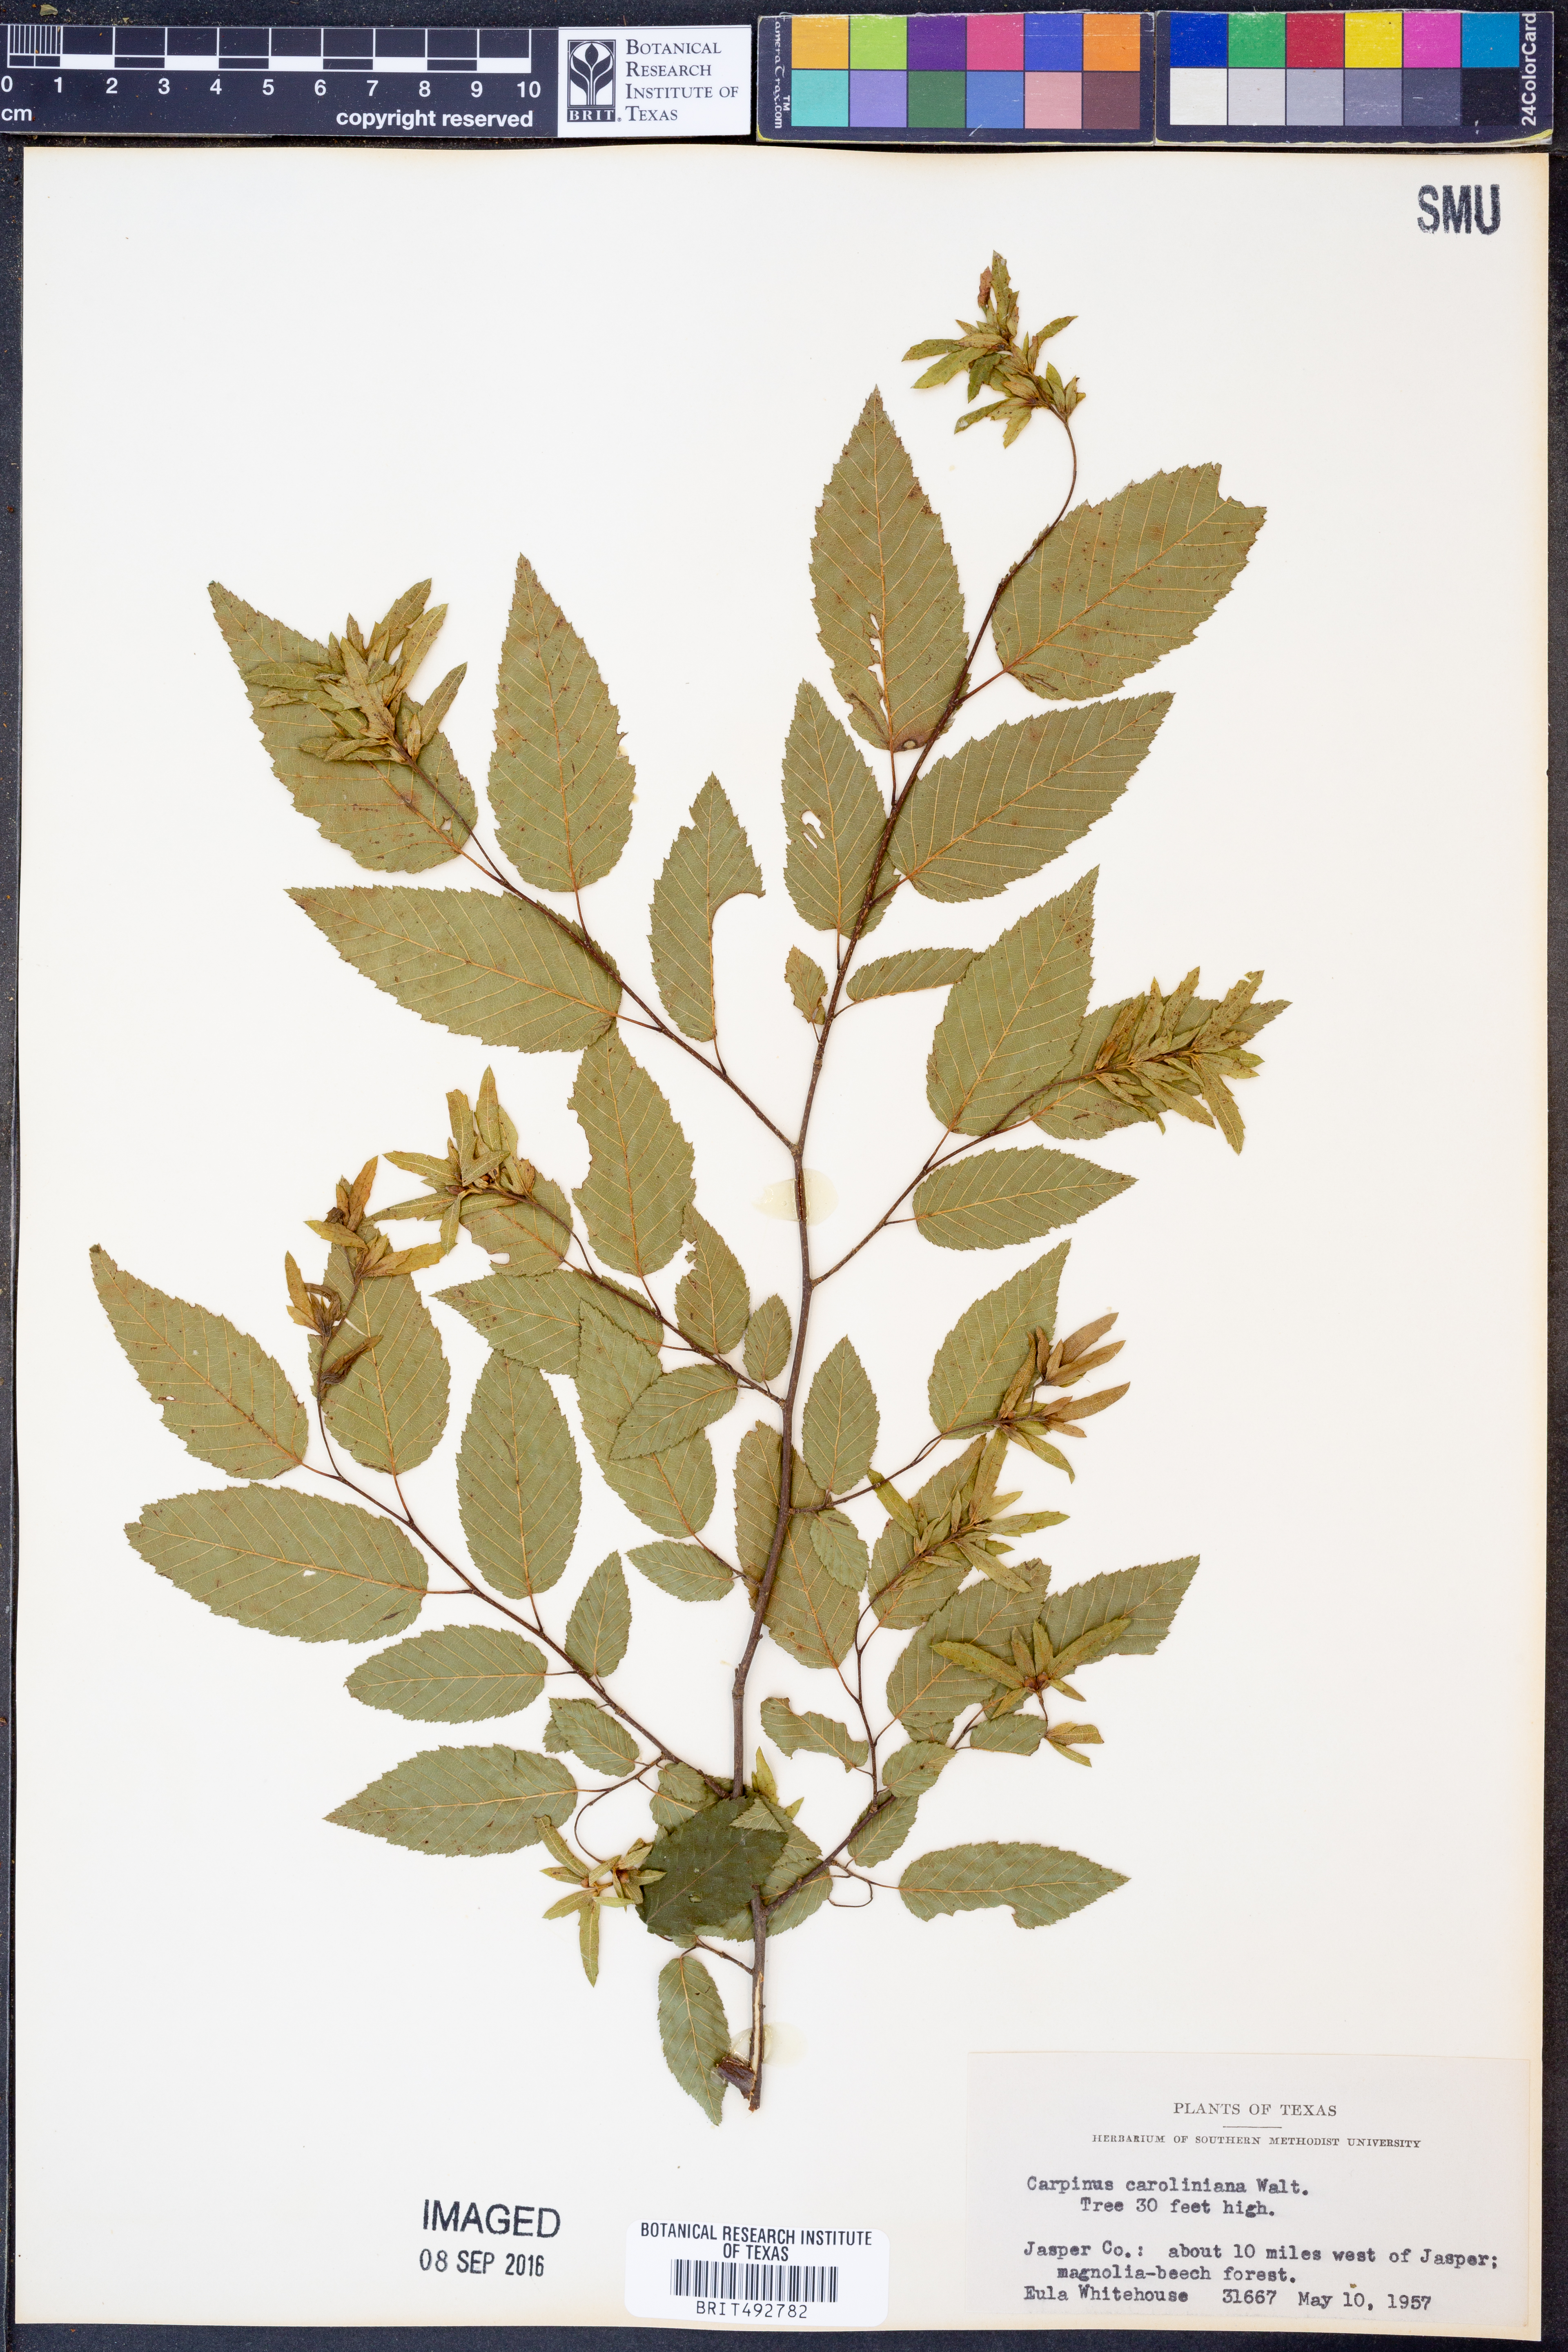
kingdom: Plantae
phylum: Tracheophyta
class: Magnoliopsida
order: Fagales
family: Betulaceae
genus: Carpinus
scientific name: Carpinus caroliniana
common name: American hornbeam
